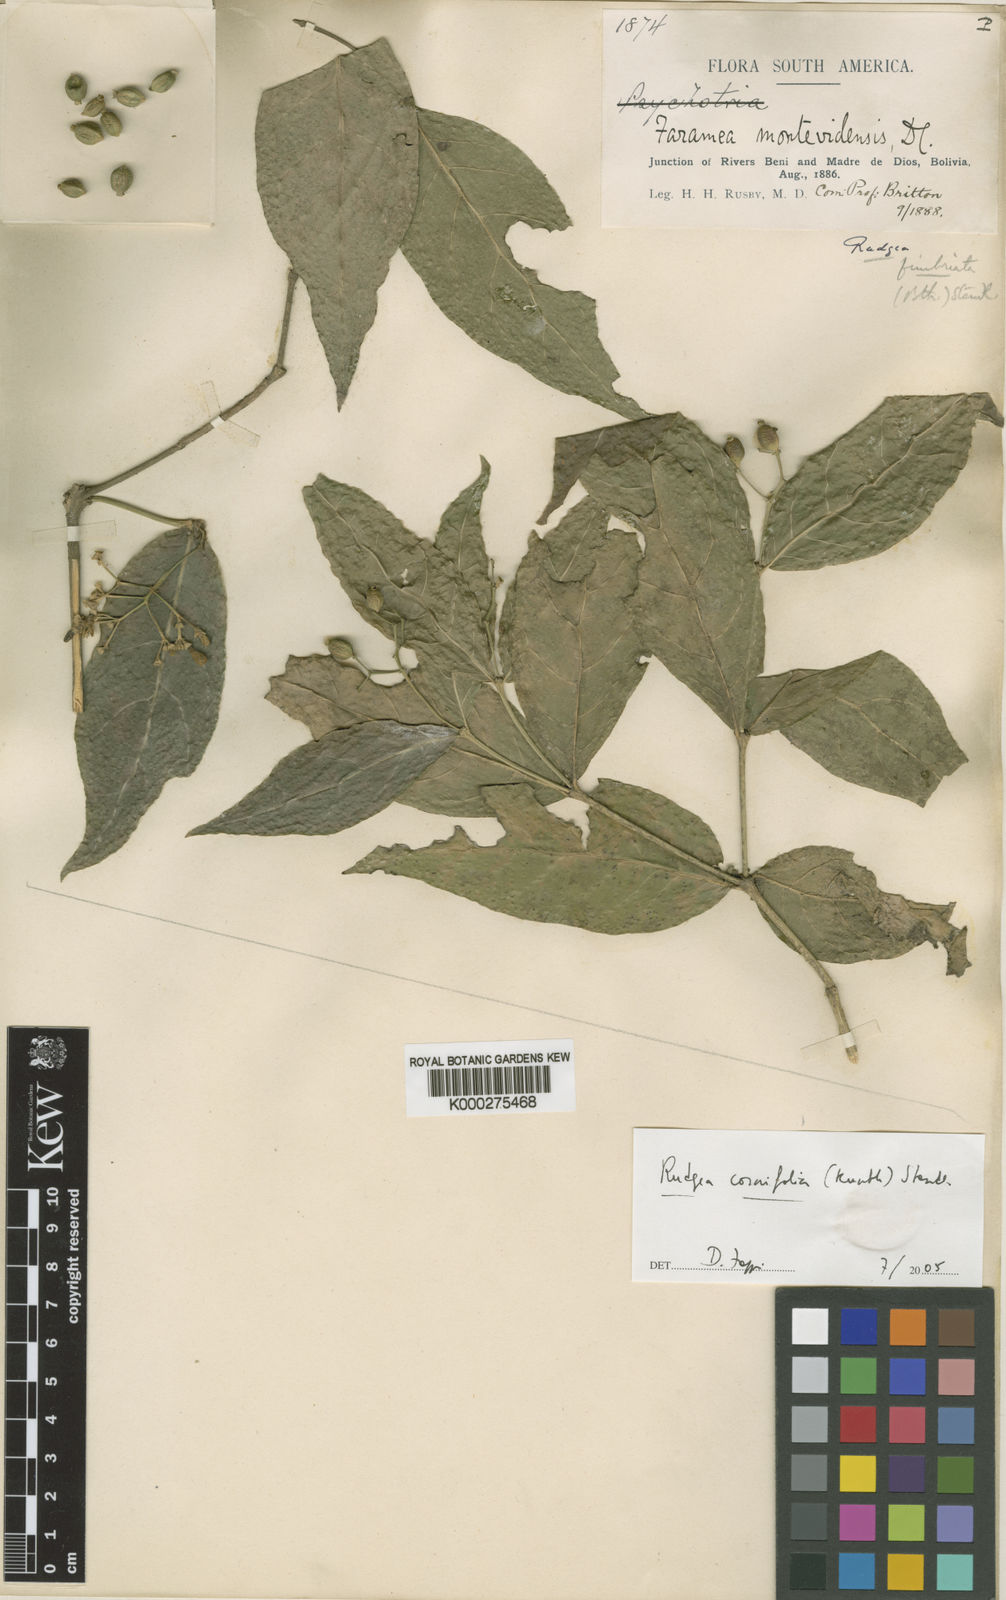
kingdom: Plantae
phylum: Tracheophyta
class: Magnoliopsida
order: Gentianales
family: Rubiaceae
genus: Rudgea
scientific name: Rudgea cornifolia
